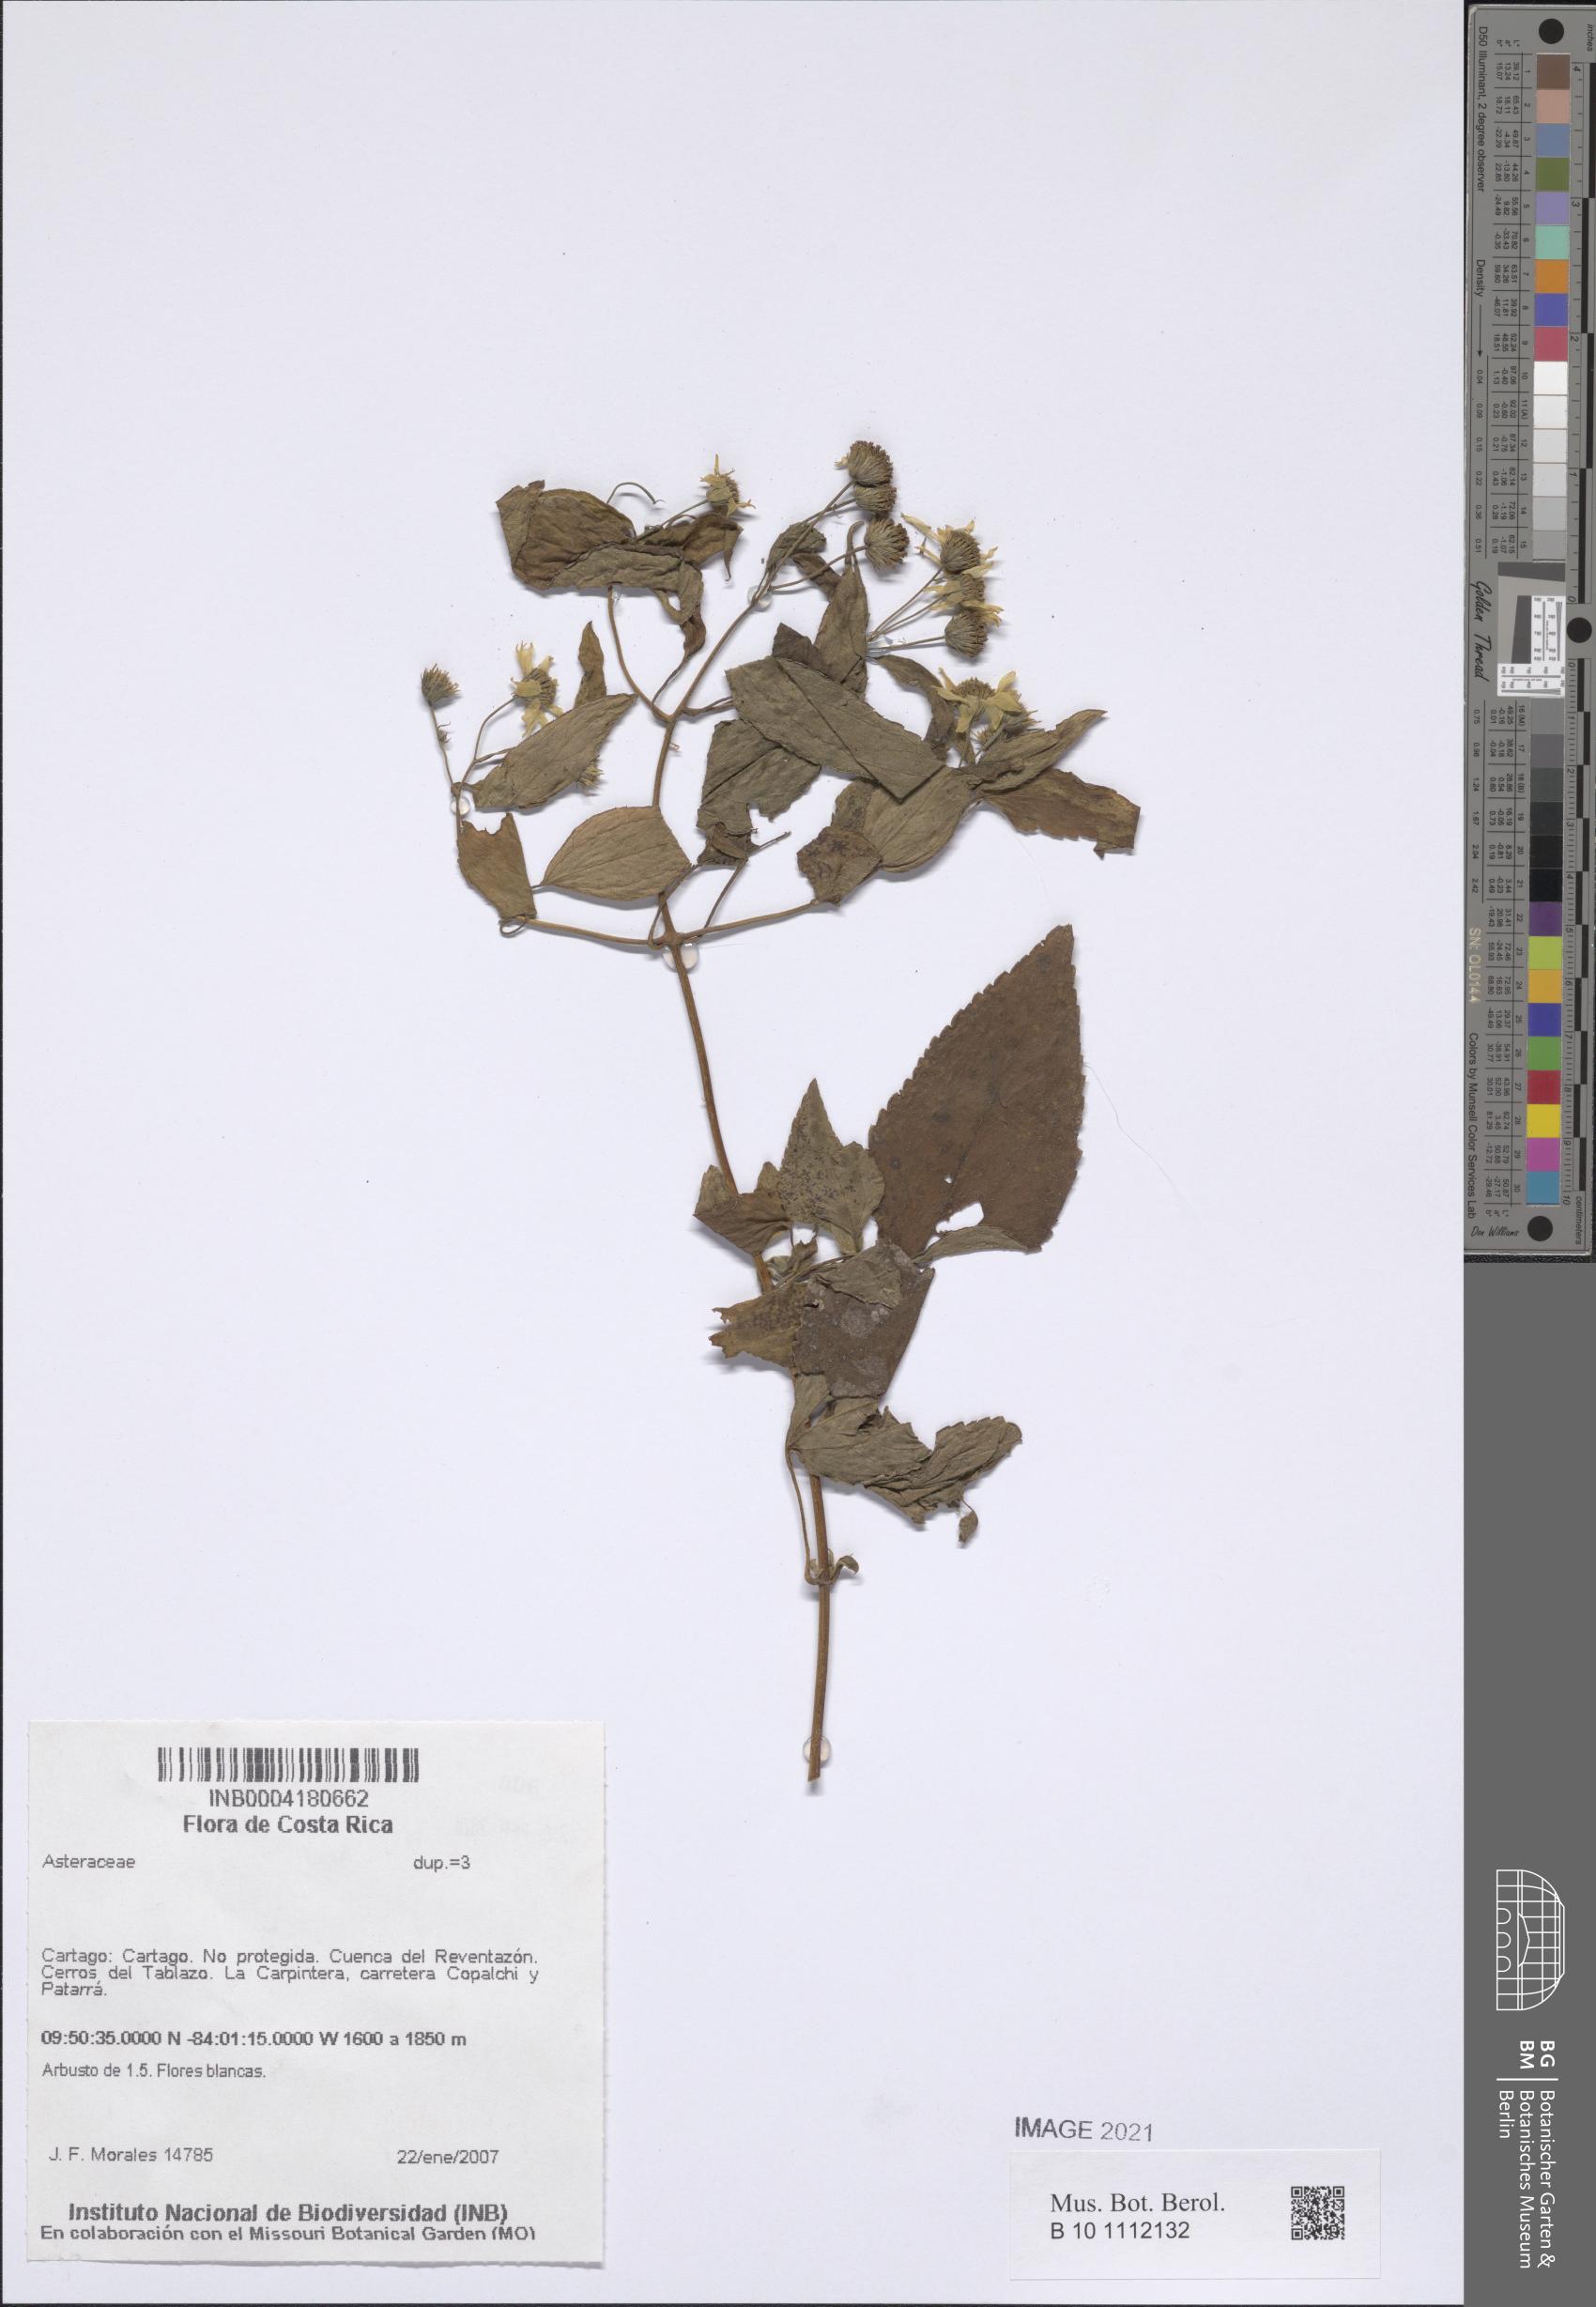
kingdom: Plantae
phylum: Tracheophyta
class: Magnoliopsida
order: Asterales
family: Asteraceae
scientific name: Asteraceae
